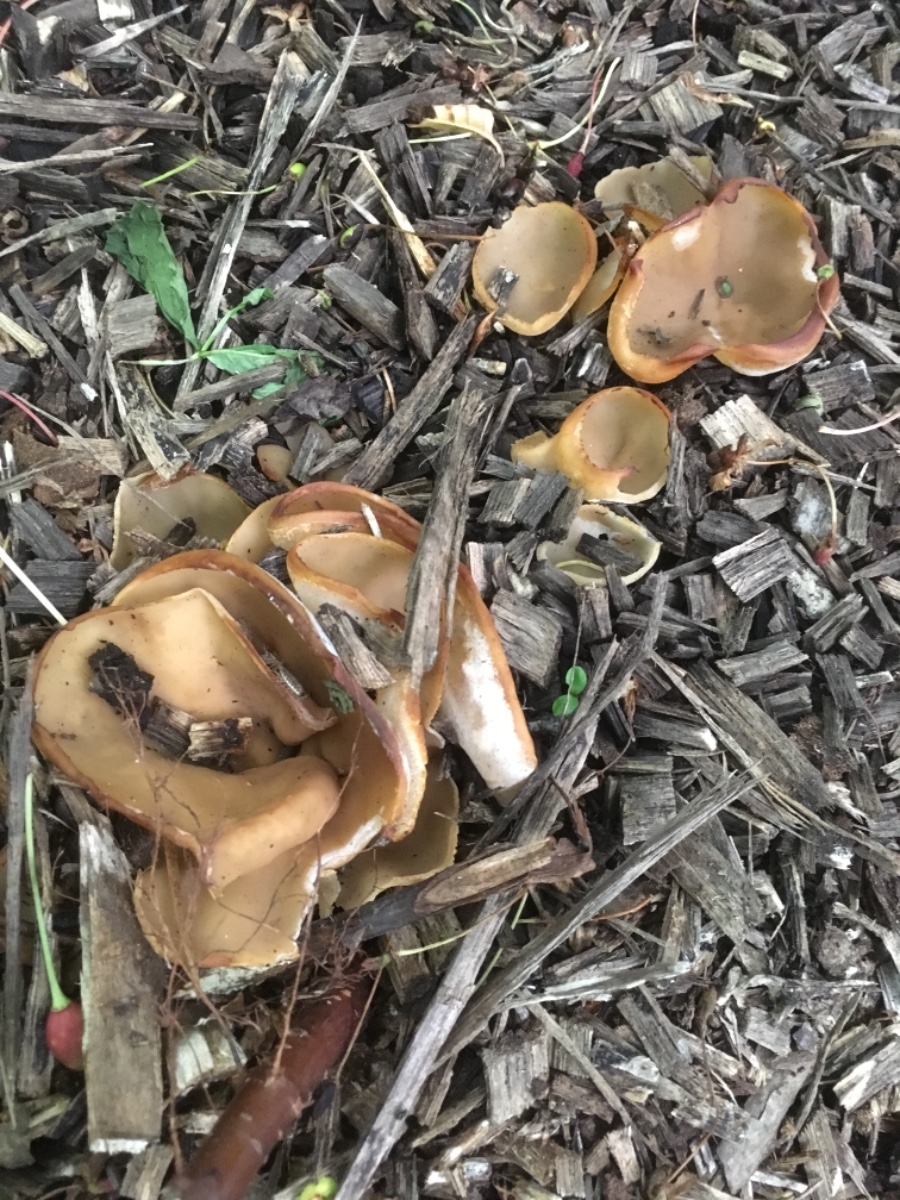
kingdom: Fungi
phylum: Ascomycota
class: Pezizomycetes
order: Pezizales
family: Pezizaceae
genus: Peziza
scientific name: Peziza
